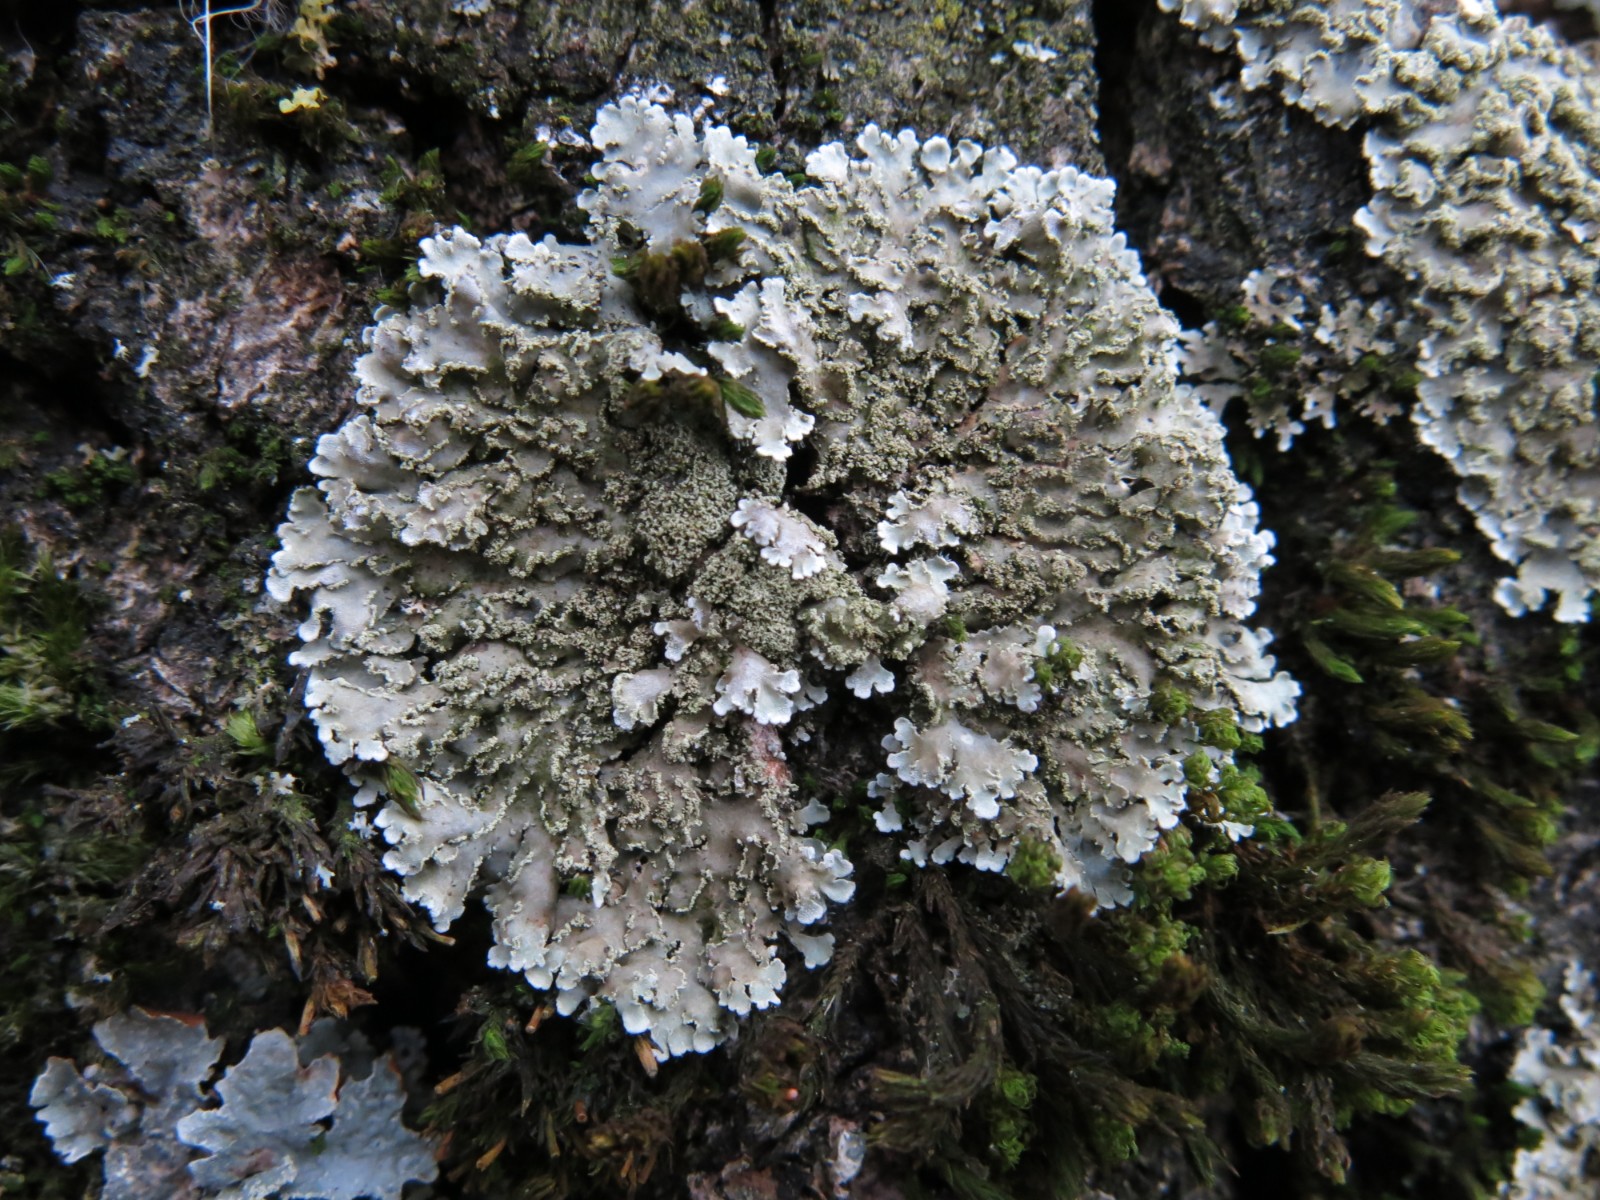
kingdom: Fungi
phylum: Ascomycota
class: Lecanoromycetes
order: Caliciales
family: Physciaceae
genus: Physconia
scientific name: Physconia enteroxantha
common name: grynet dugrosetlav
